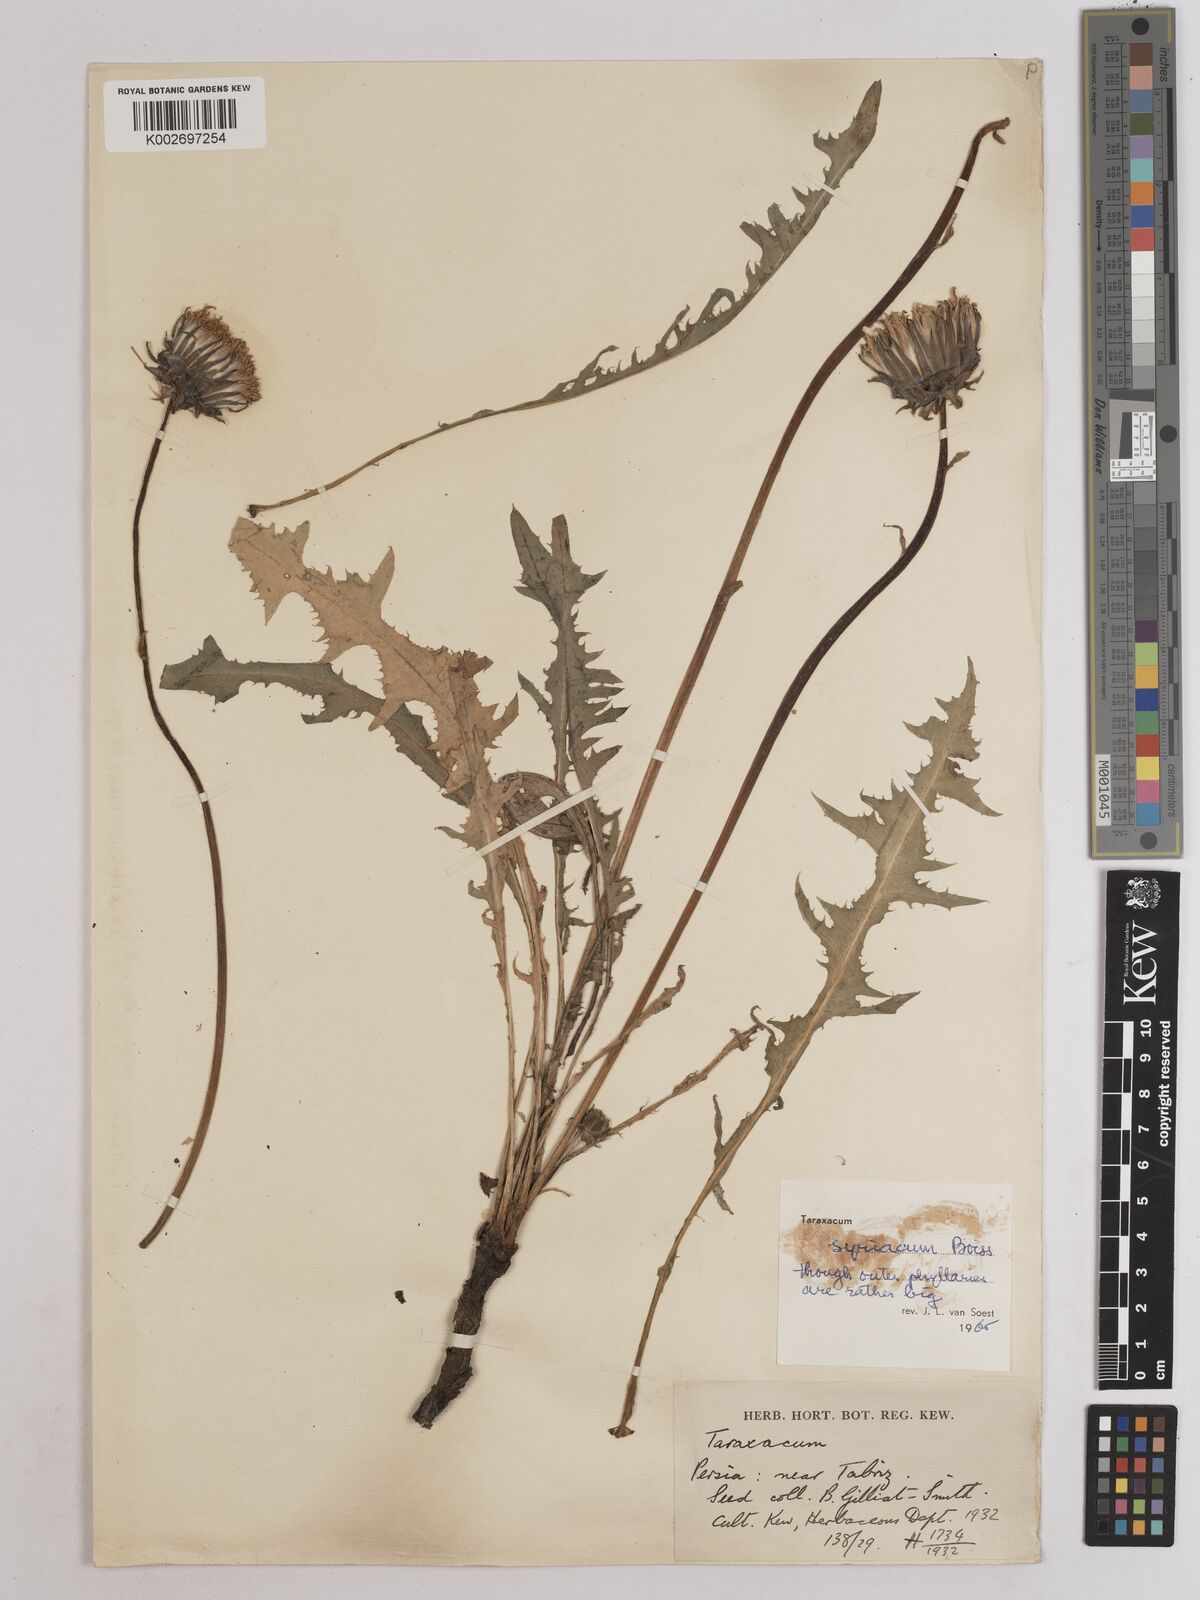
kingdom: Plantae
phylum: Tracheophyta
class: Magnoliopsida
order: Asterales
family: Asteraceae
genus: Taraxacum
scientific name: Taraxacum syriacum
